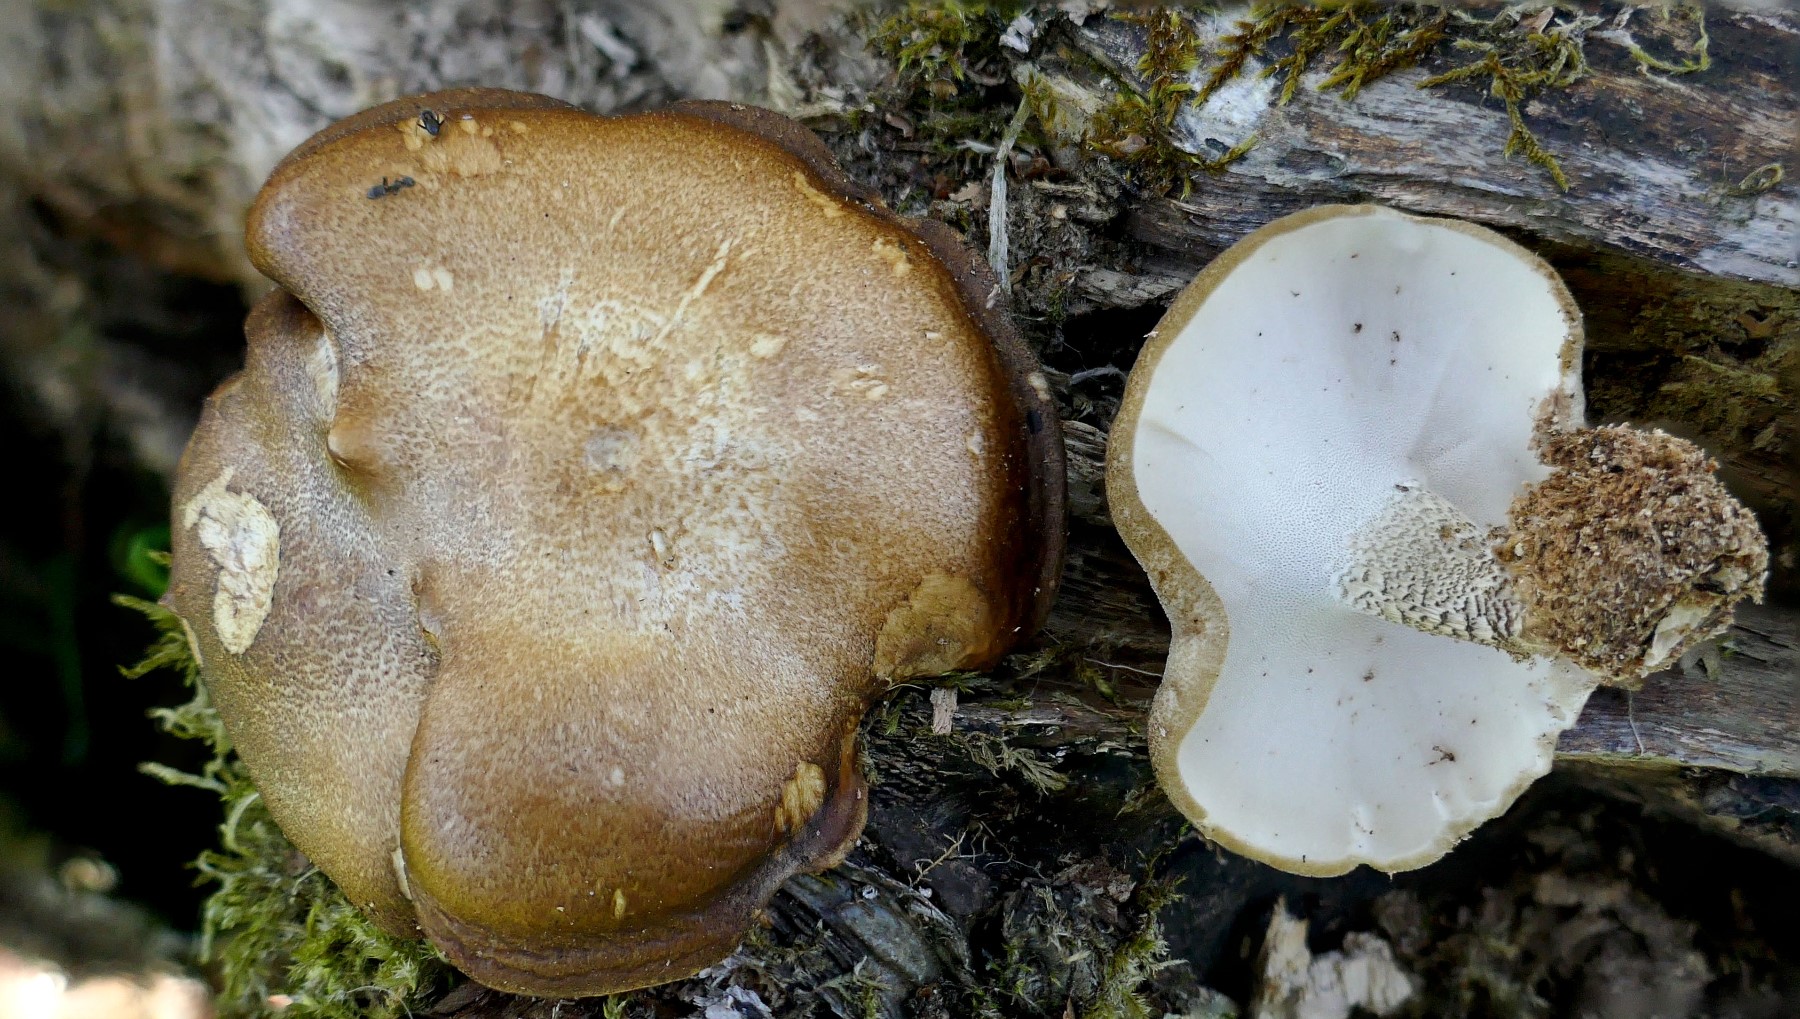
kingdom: Fungi
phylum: Basidiomycota
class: Agaricomycetes
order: Polyporales
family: Polyporaceae
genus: Lentinus
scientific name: Lentinus substrictus
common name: forårs-stilkporesvamp
